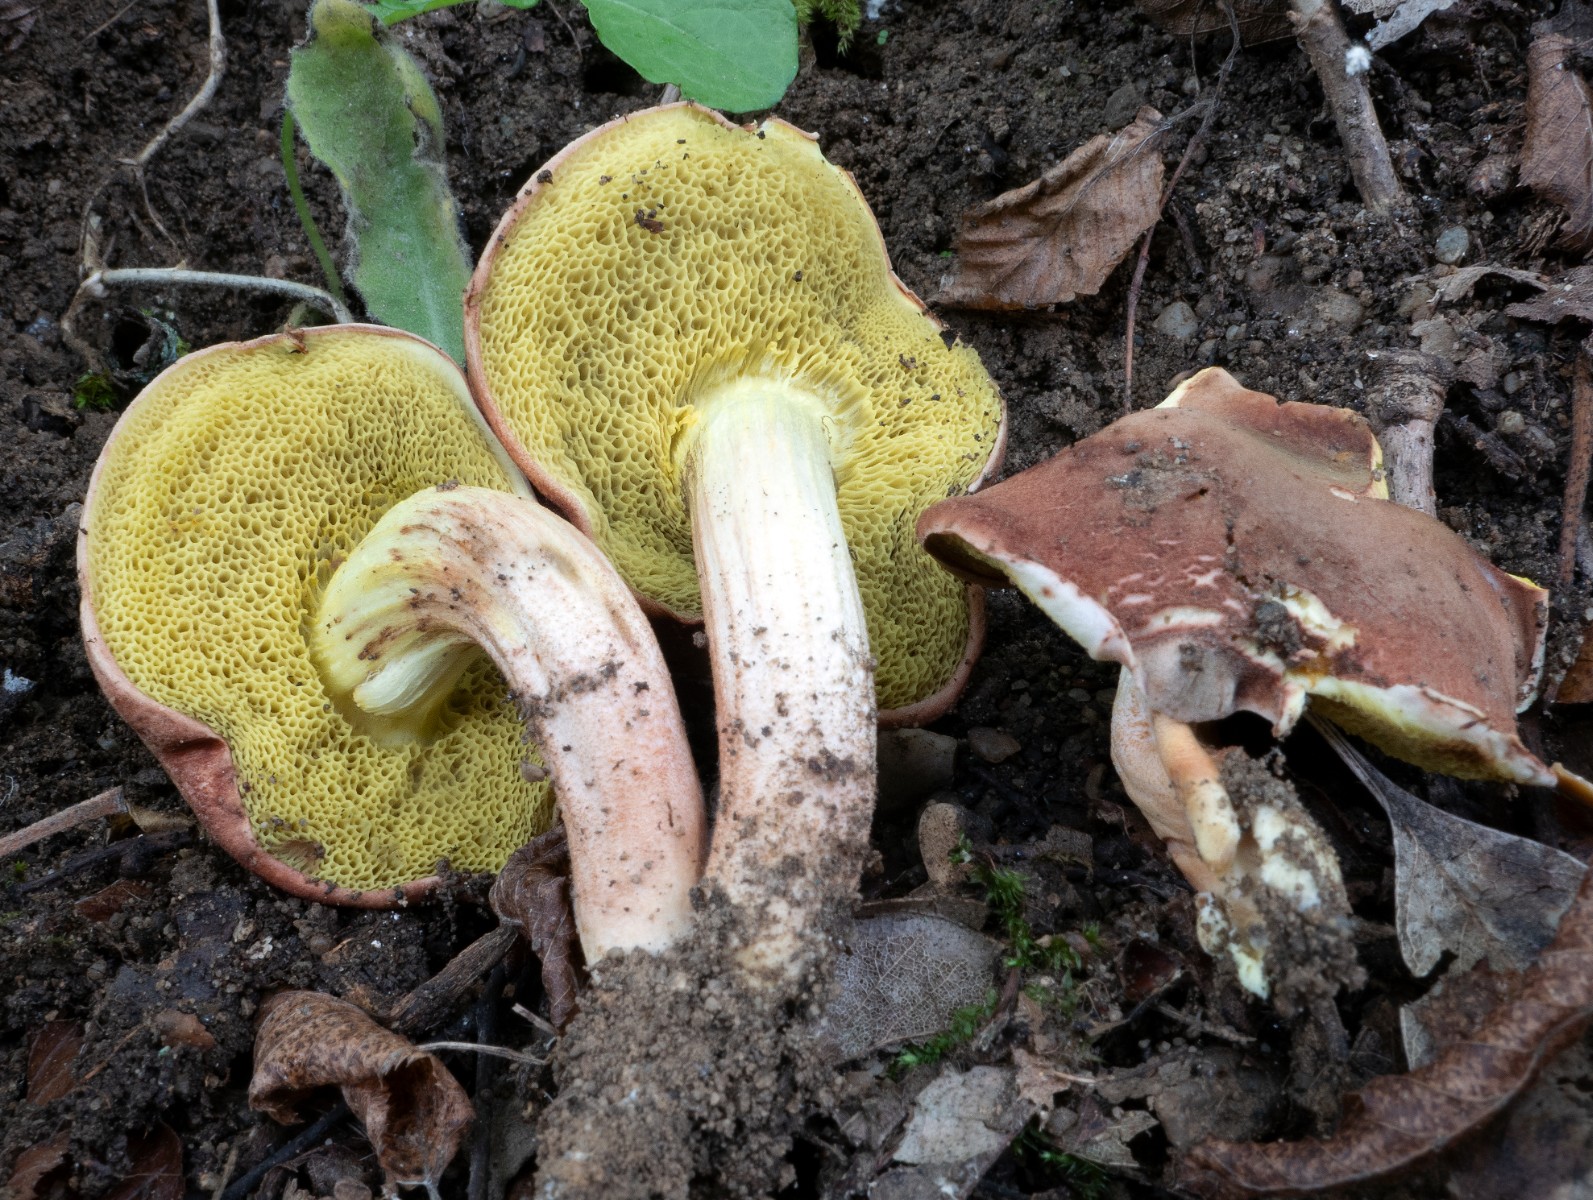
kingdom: Fungi
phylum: Basidiomycota
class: Agaricomycetes
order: Boletales
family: Boletaceae
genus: Xerocomus
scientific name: Xerocomus
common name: filtrørhat
